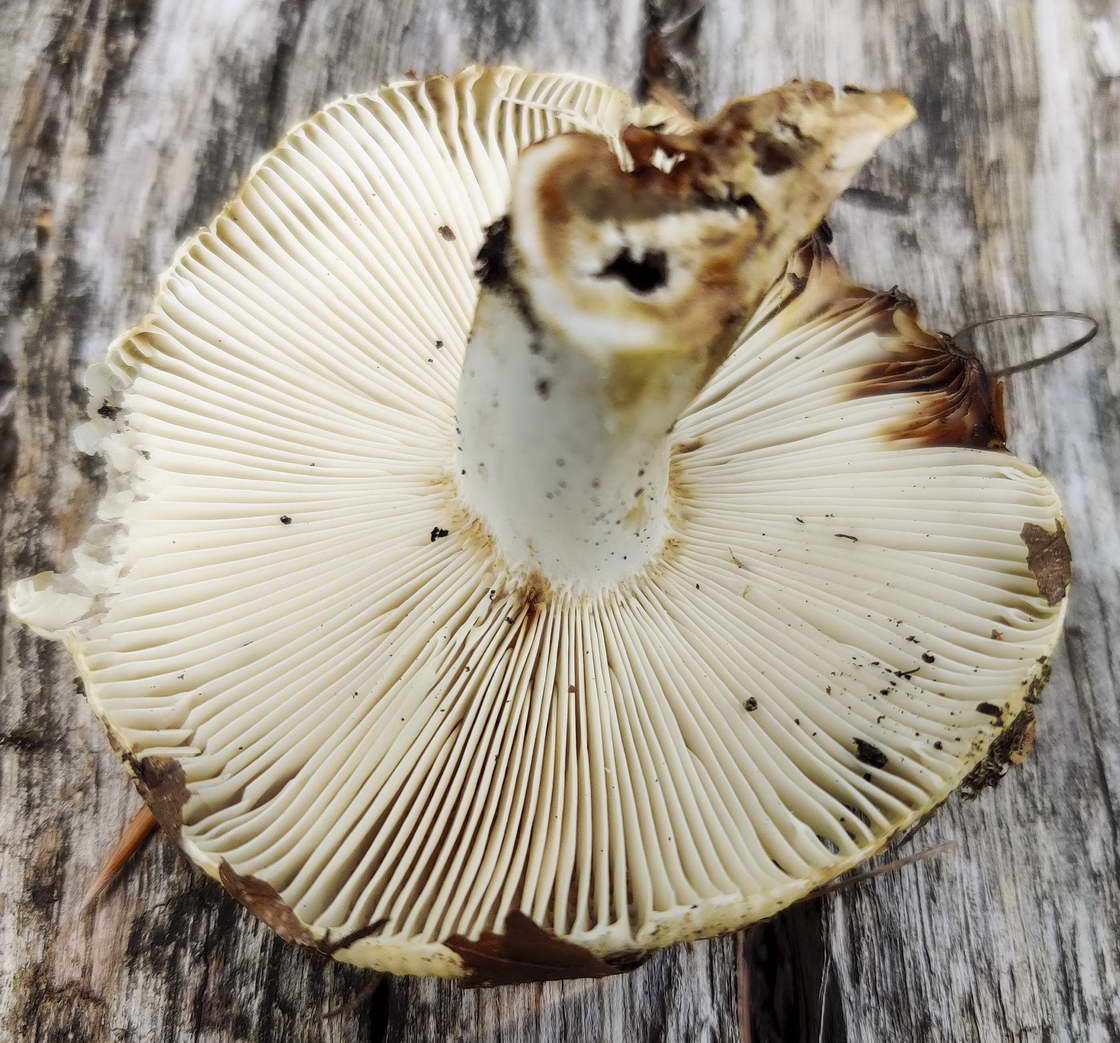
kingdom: Fungi
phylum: Basidiomycota
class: Agaricomycetes
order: Russulales
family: Russulaceae
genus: Russula
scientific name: Russula amoenolens
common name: skarp kam-skørhat
